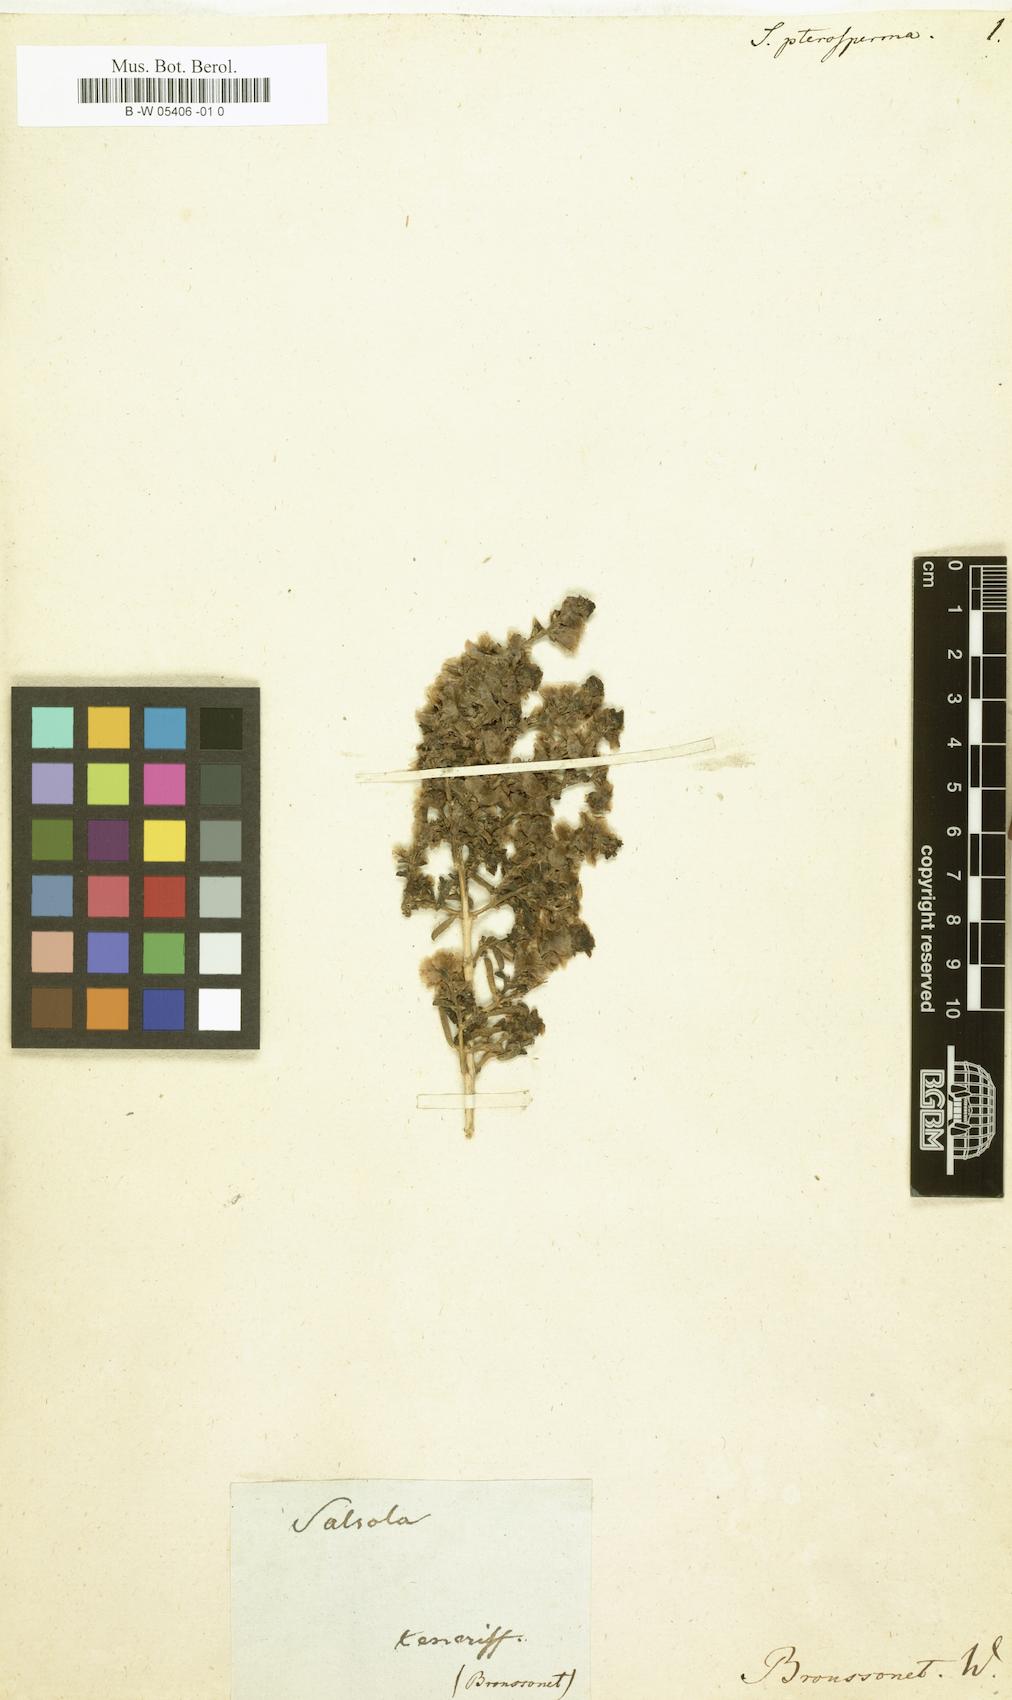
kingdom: Plantae
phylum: Tracheophyta
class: Magnoliopsida
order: Caryophyllales
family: Amaranthaceae
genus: Salsola
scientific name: Salsola
